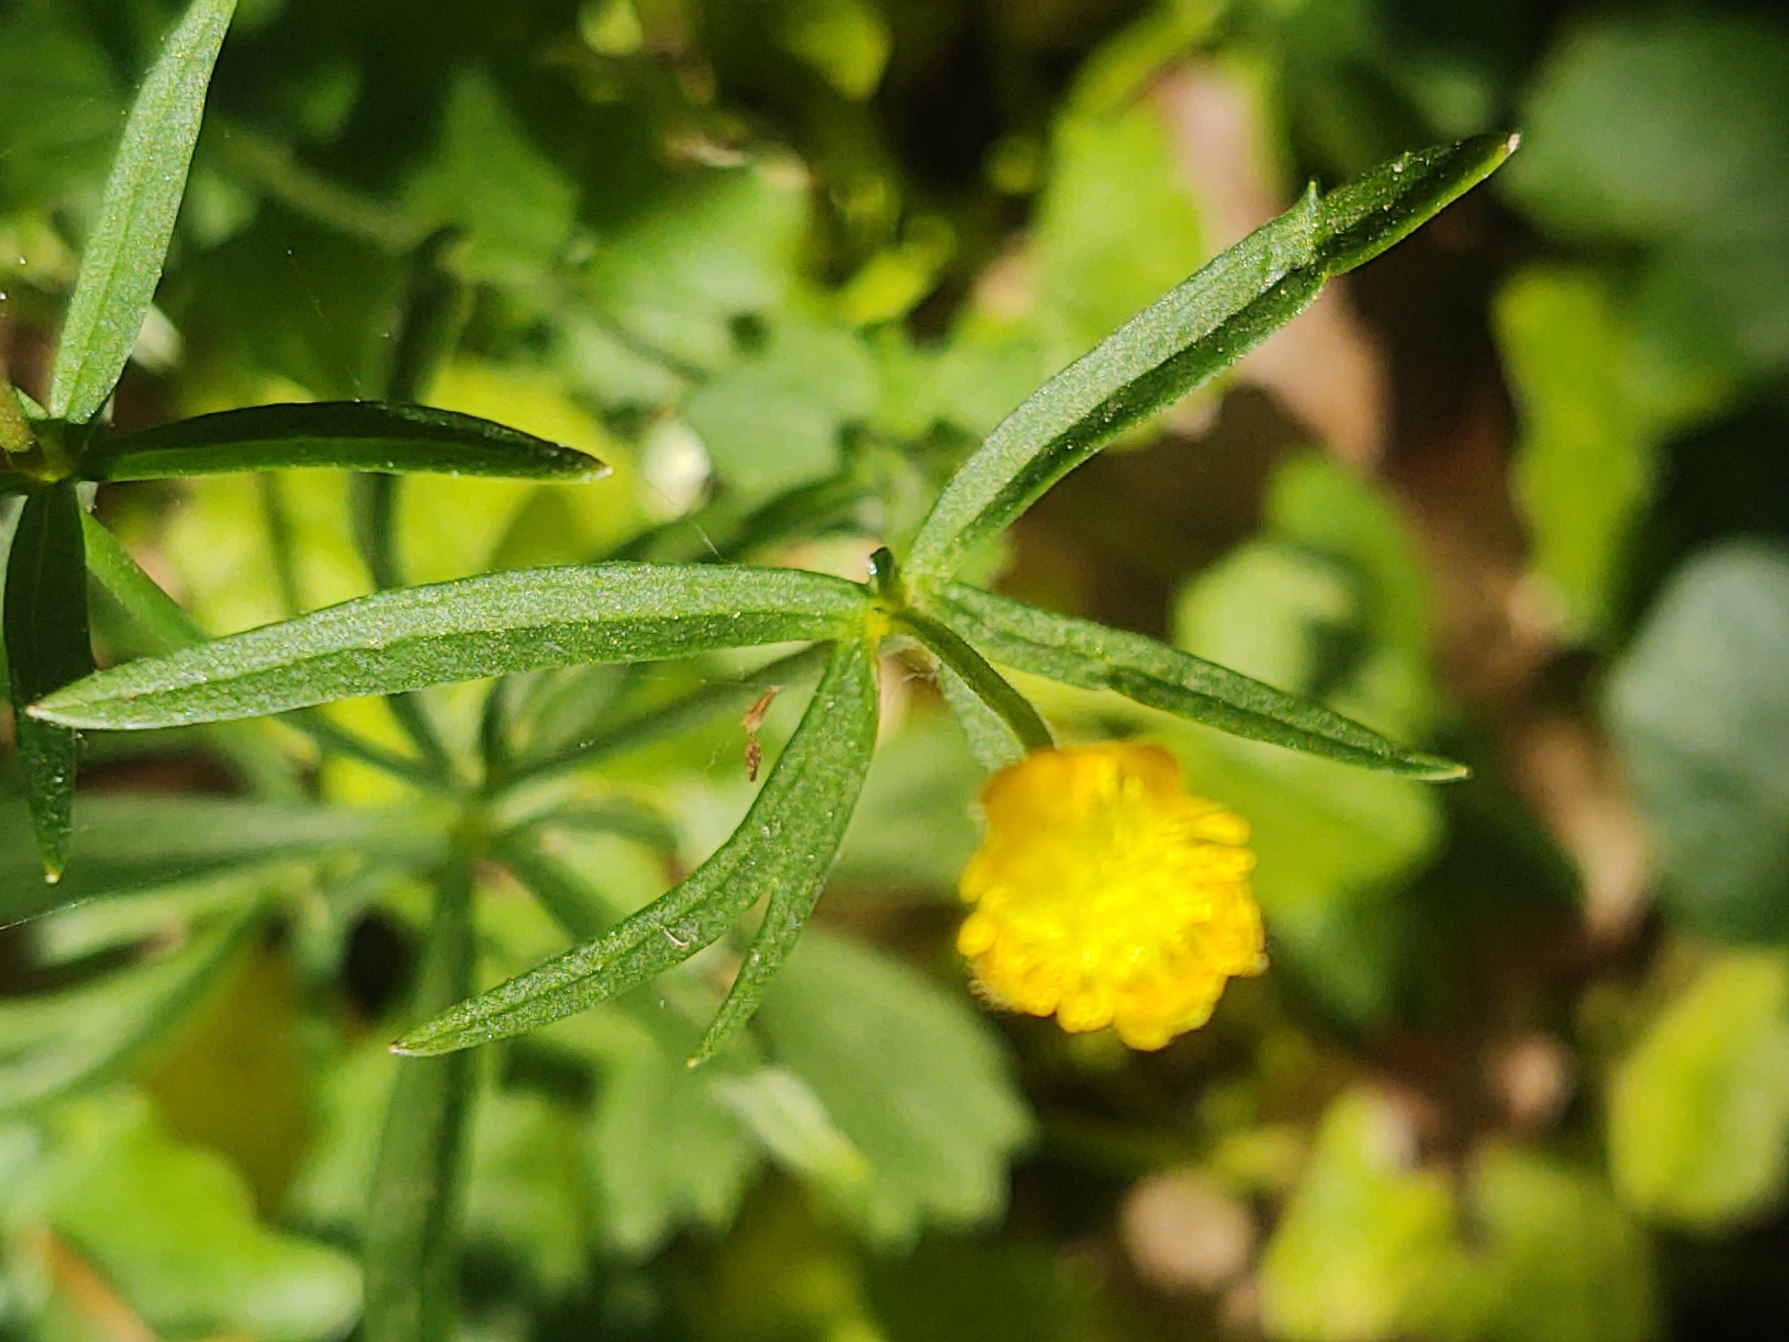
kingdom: Plantae
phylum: Tracheophyta
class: Magnoliopsida
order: Ranunculales
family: Ranunculaceae
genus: Ranunculus
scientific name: Ranunculus auricomus
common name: Nyrebladet ranunkel
